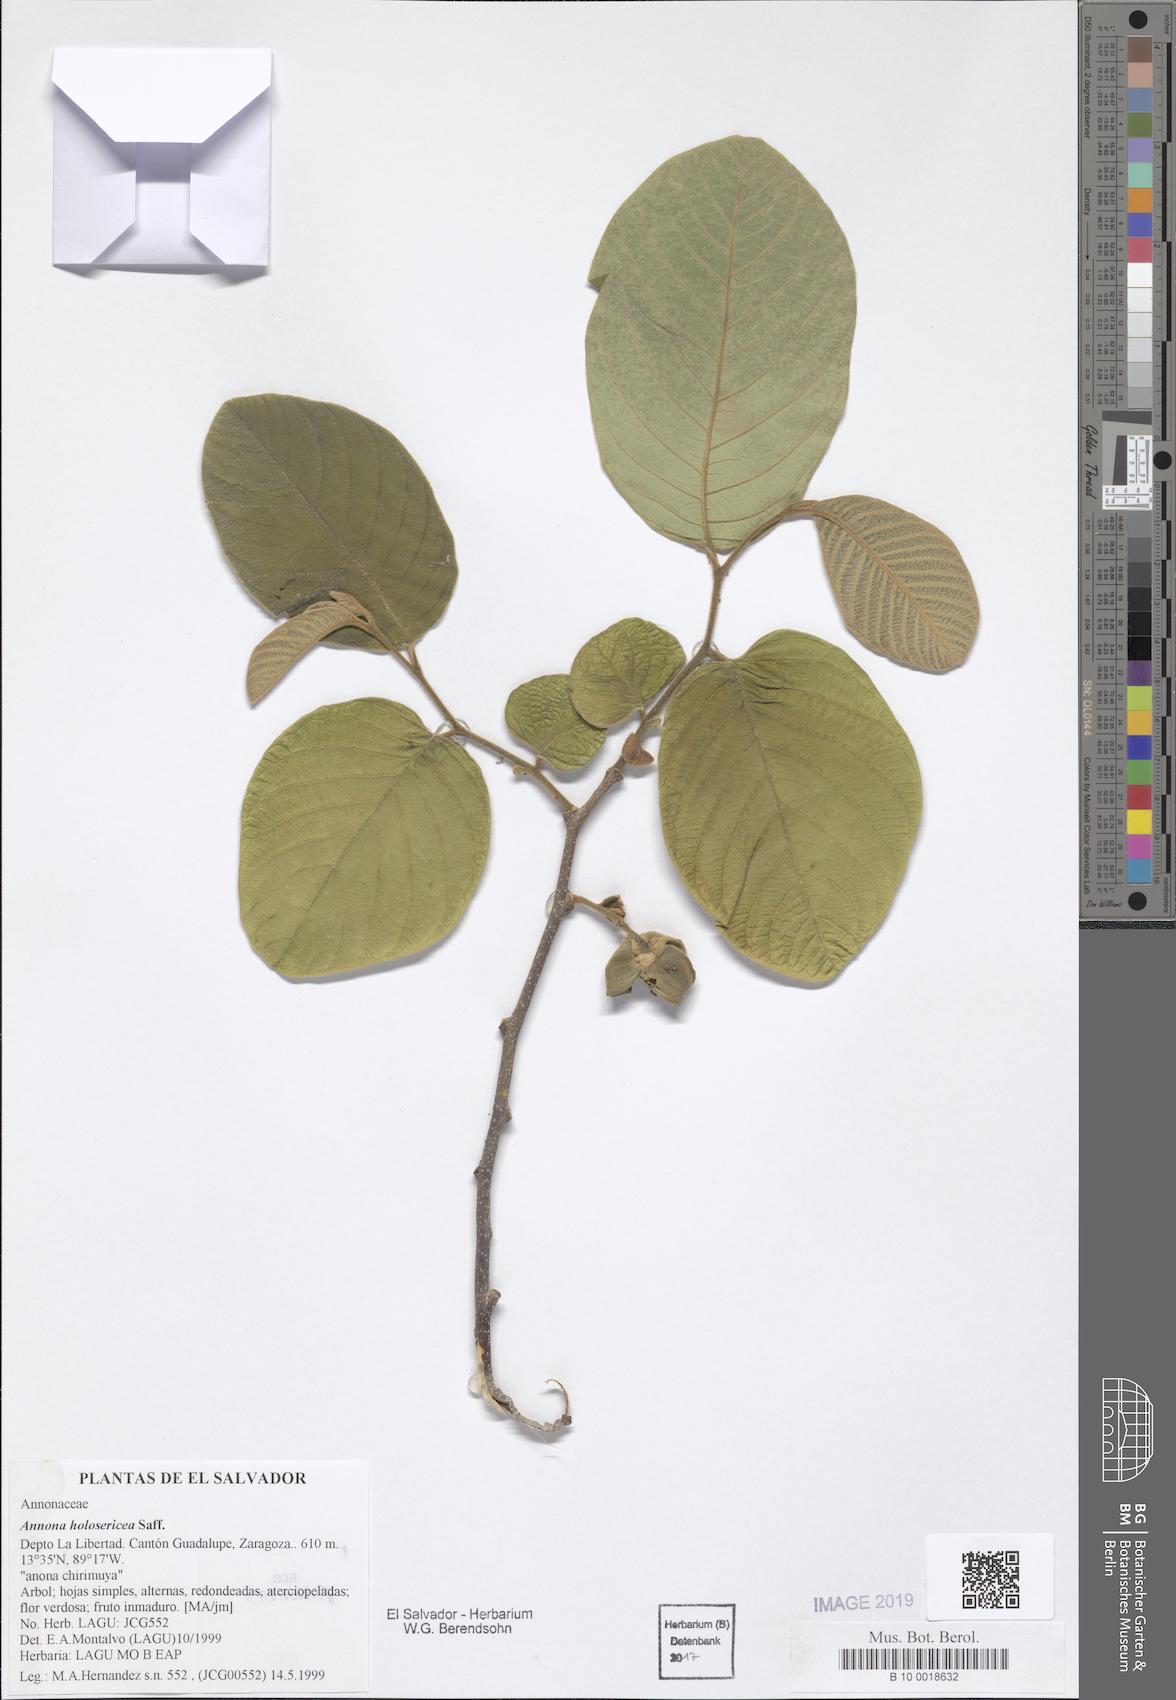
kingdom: Plantae
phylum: Tracheophyta
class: Magnoliopsida
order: Magnoliales
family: Annonaceae
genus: Annona
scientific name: Annona holosericea
